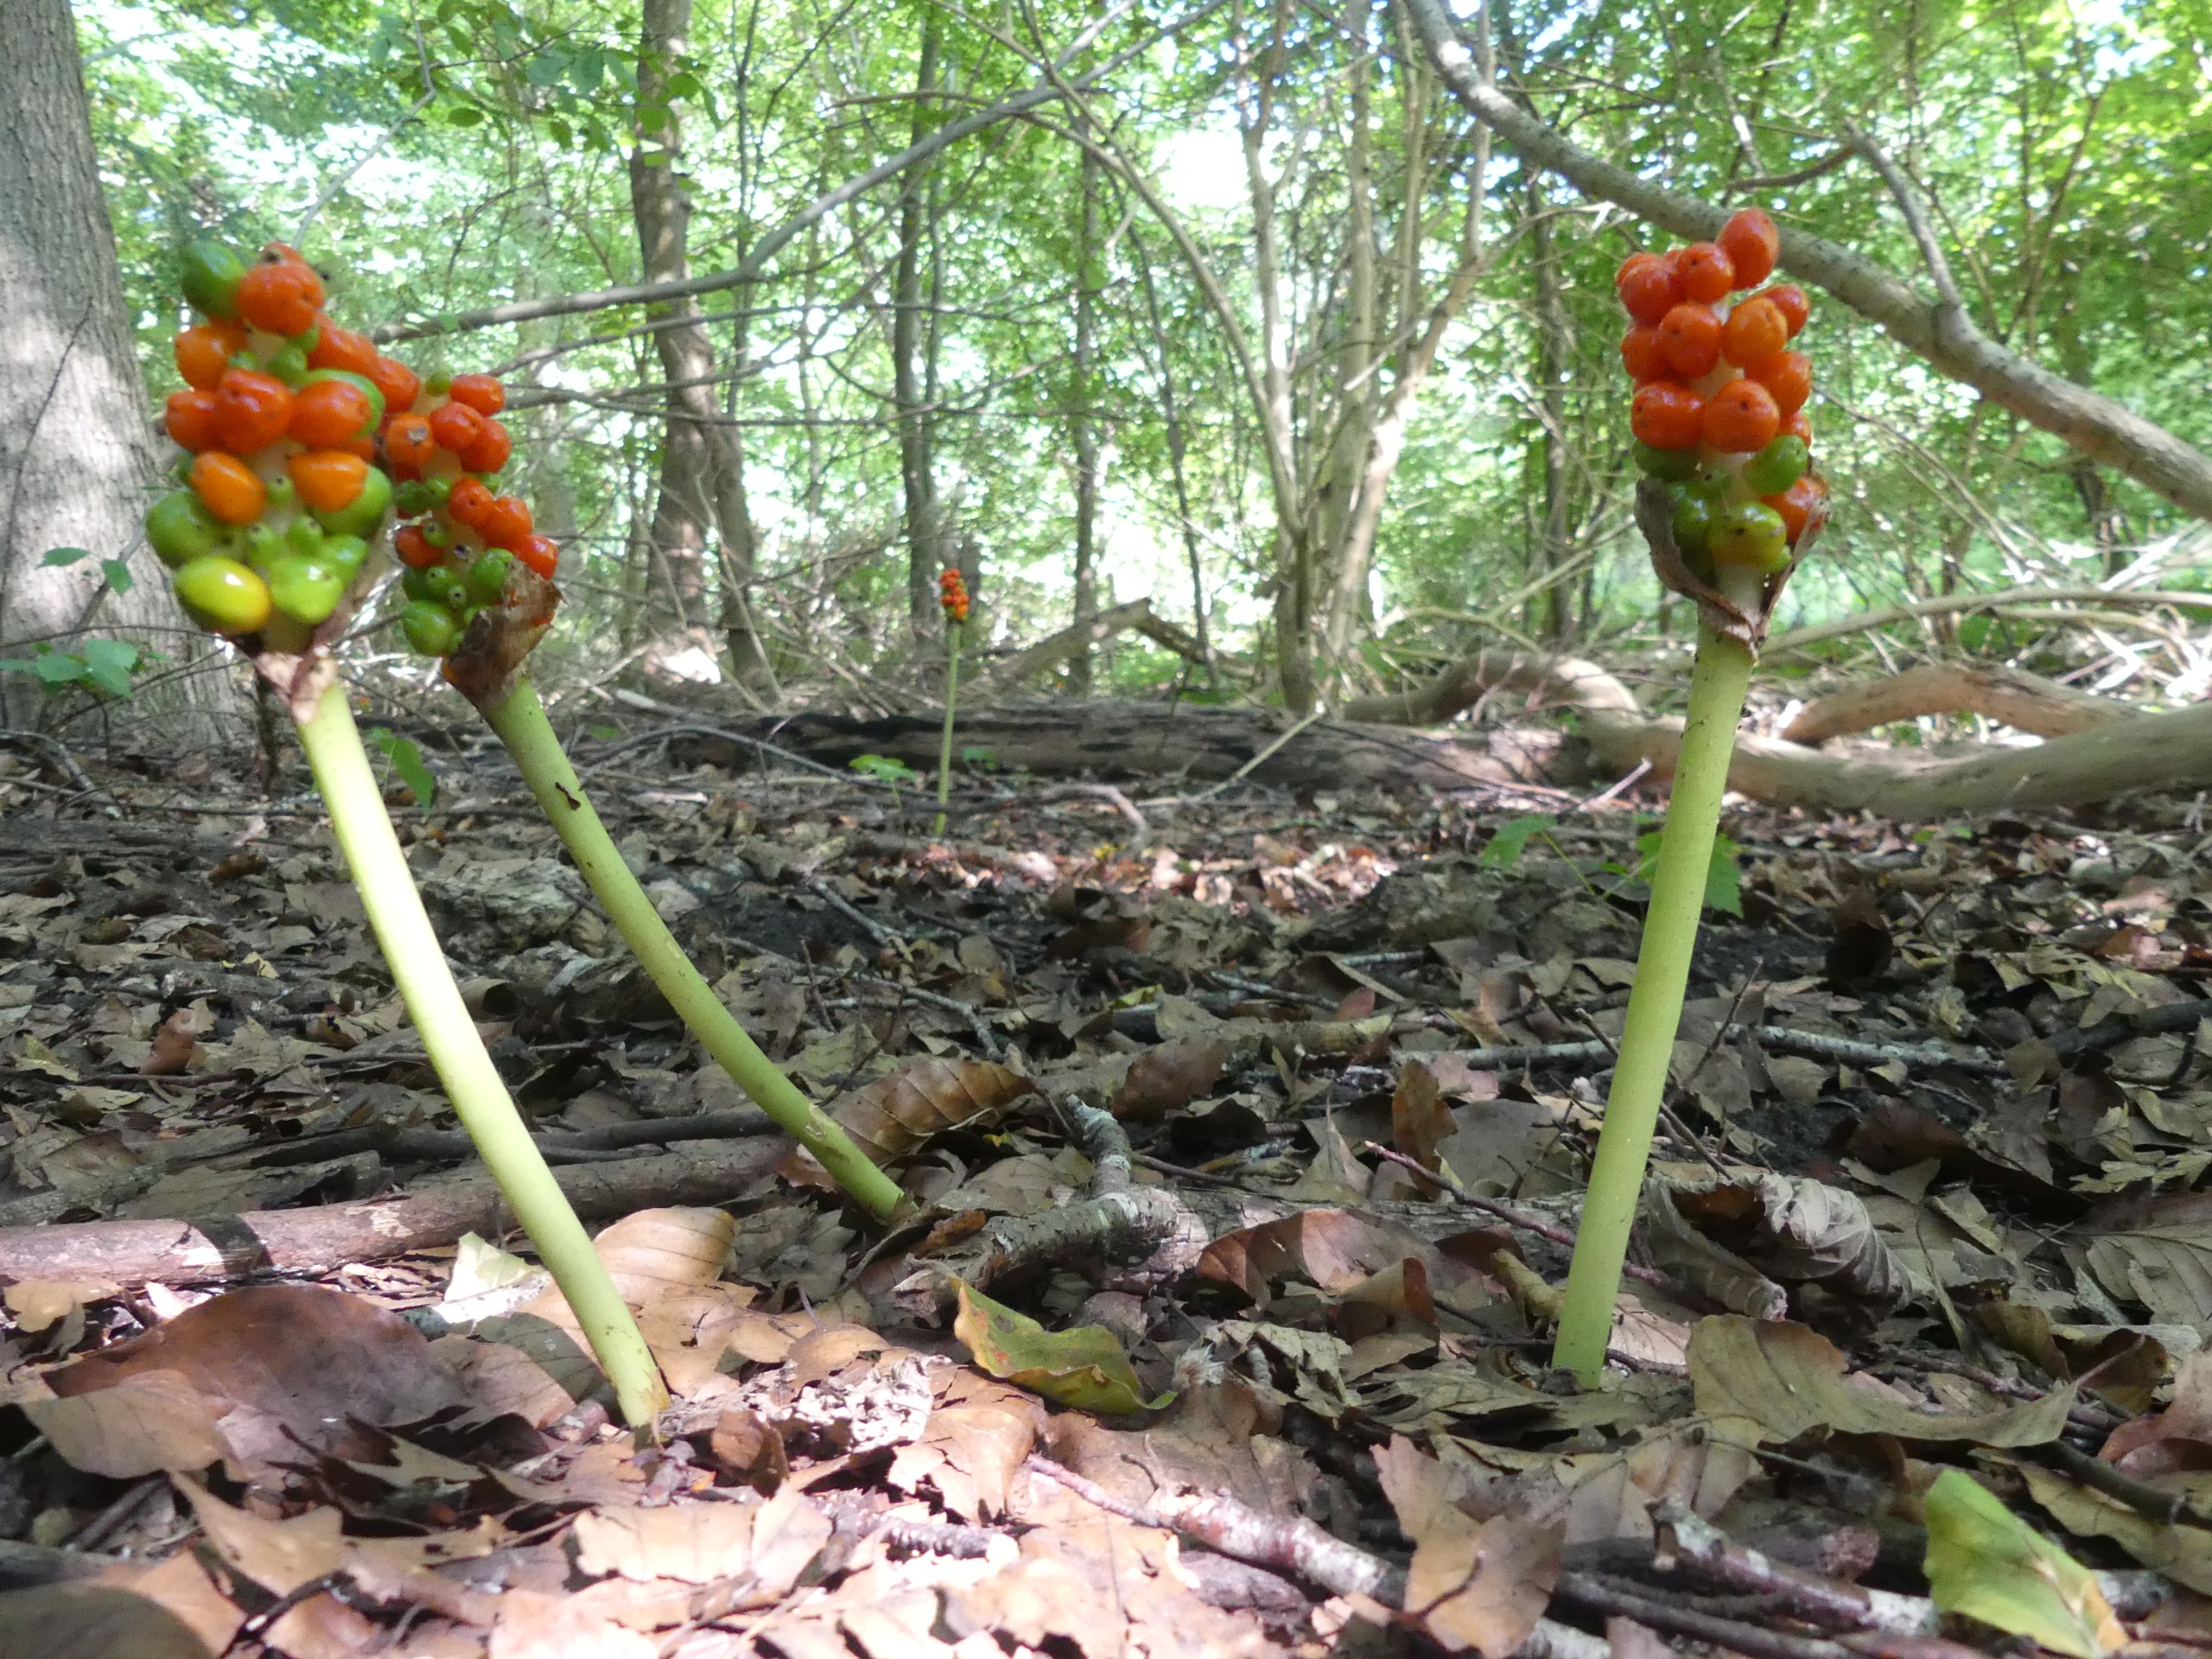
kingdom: Plantae
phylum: Tracheophyta
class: Liliopsida
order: Alismatales
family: Araceae
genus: Arum
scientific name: Arum maculatum
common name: Plettet arum
